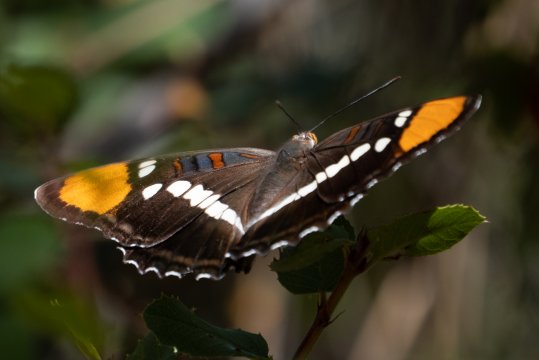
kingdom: Animalia
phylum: Arthropoda
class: Insecta
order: Lepidoptera
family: Nymphalidae
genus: Limenitis
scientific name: Limenitis bredowii
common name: California Sister
